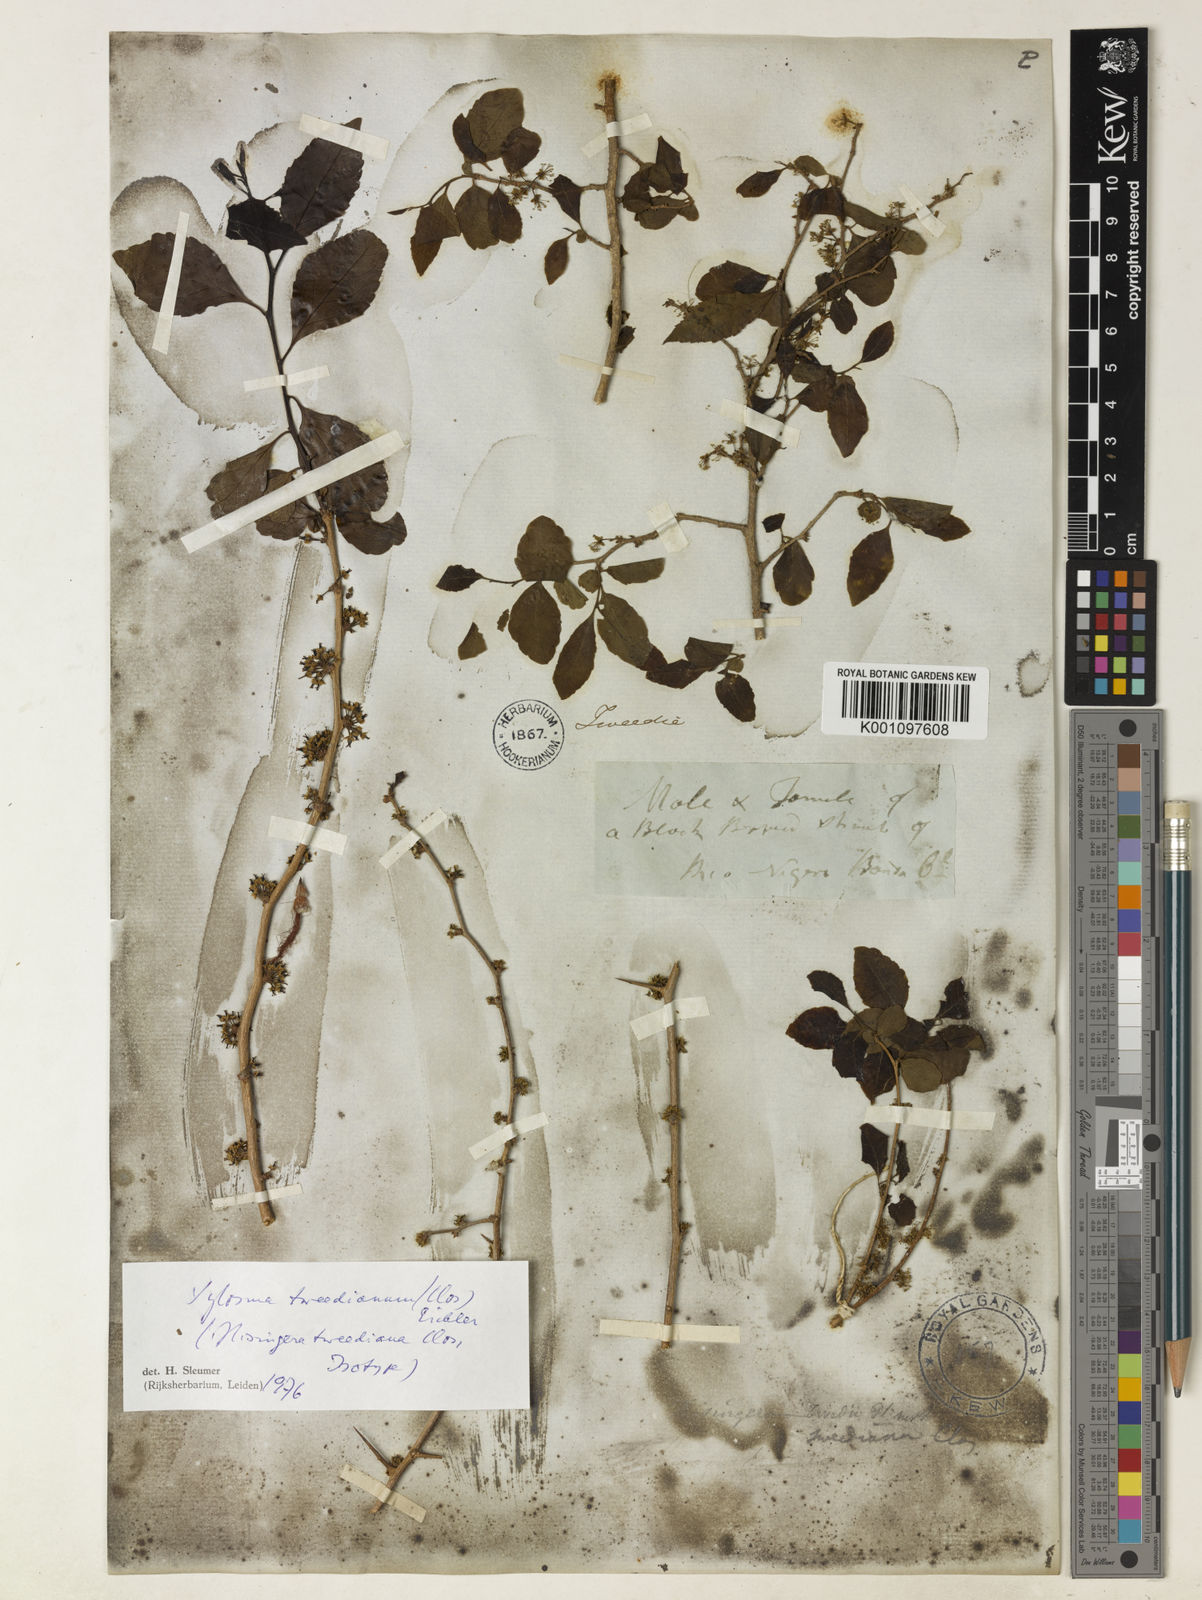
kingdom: Plantae
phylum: Tracheophyta
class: Magnoliopsida
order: Malpighiales
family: Salicaceae
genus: Xylosma
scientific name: Xylosma
